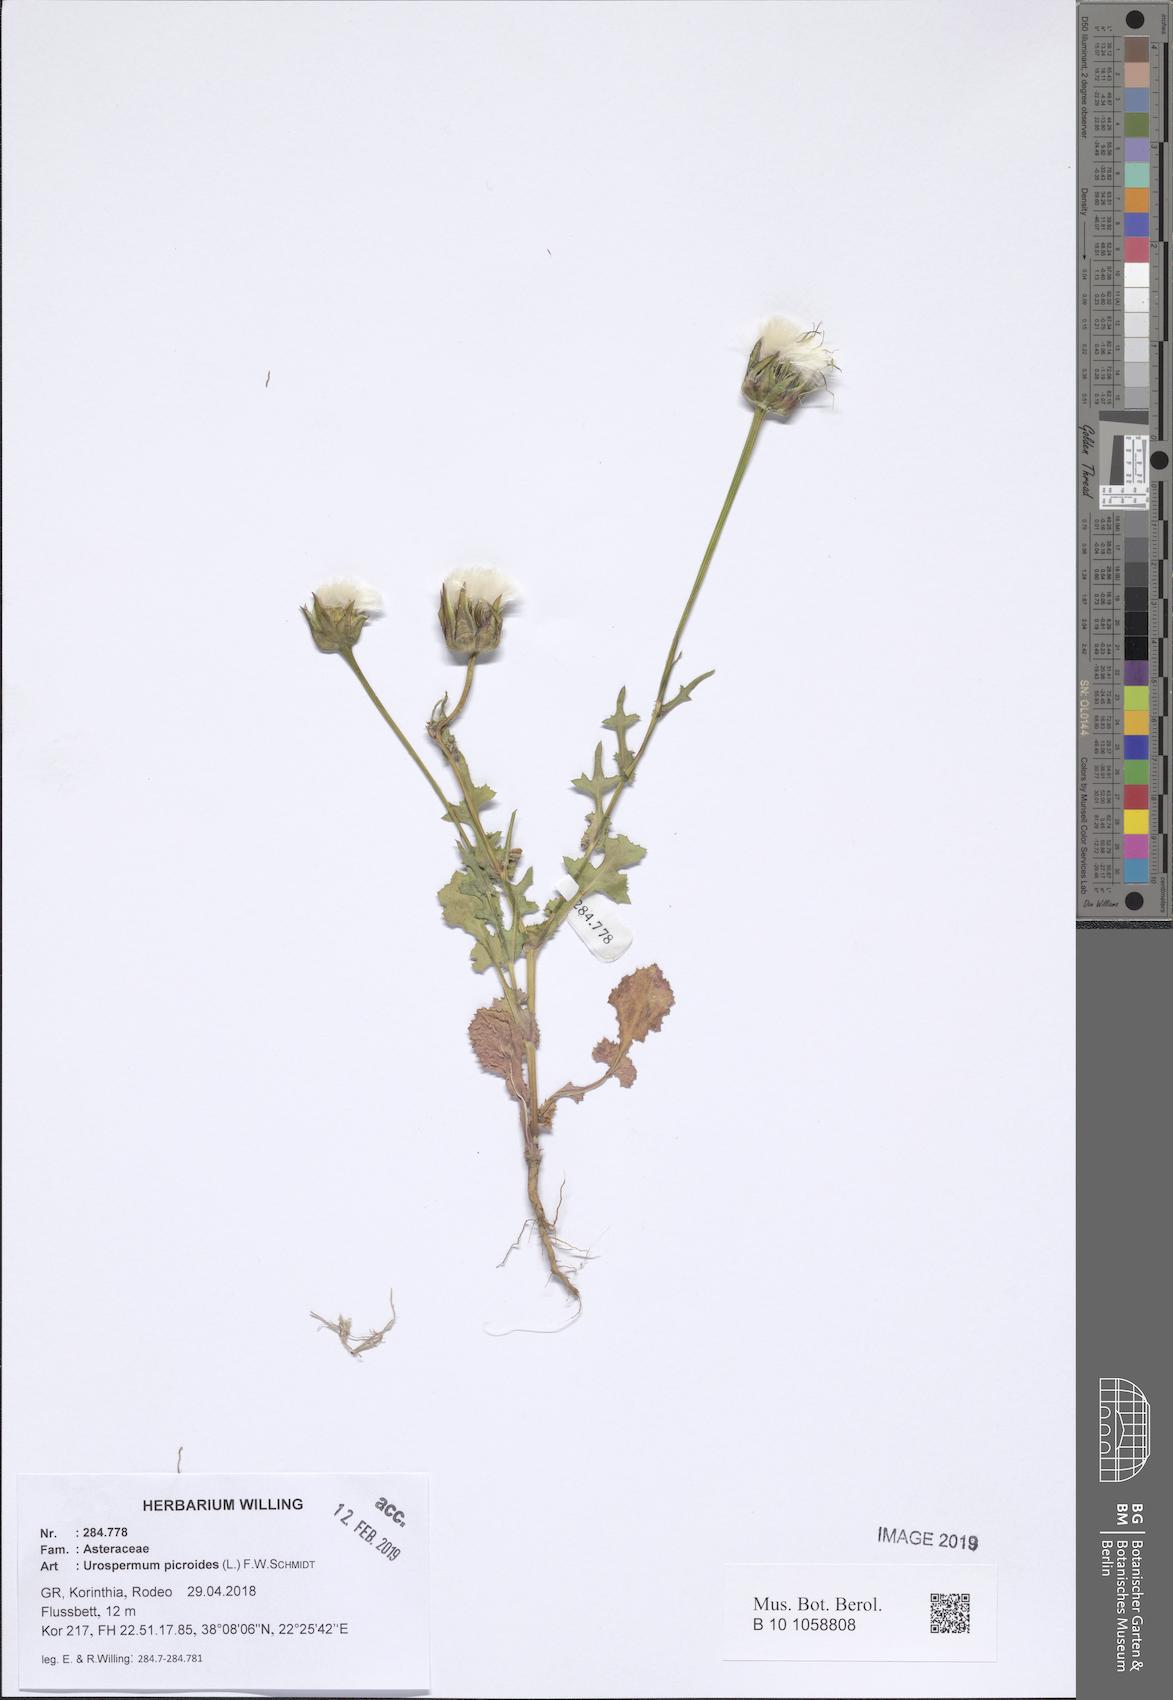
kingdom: Plantae
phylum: Tracheophyta
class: Magnoliopsida
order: Asterales
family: Asteraceae
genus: Urospermum
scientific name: Urospermum picroides
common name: False hawkbit
